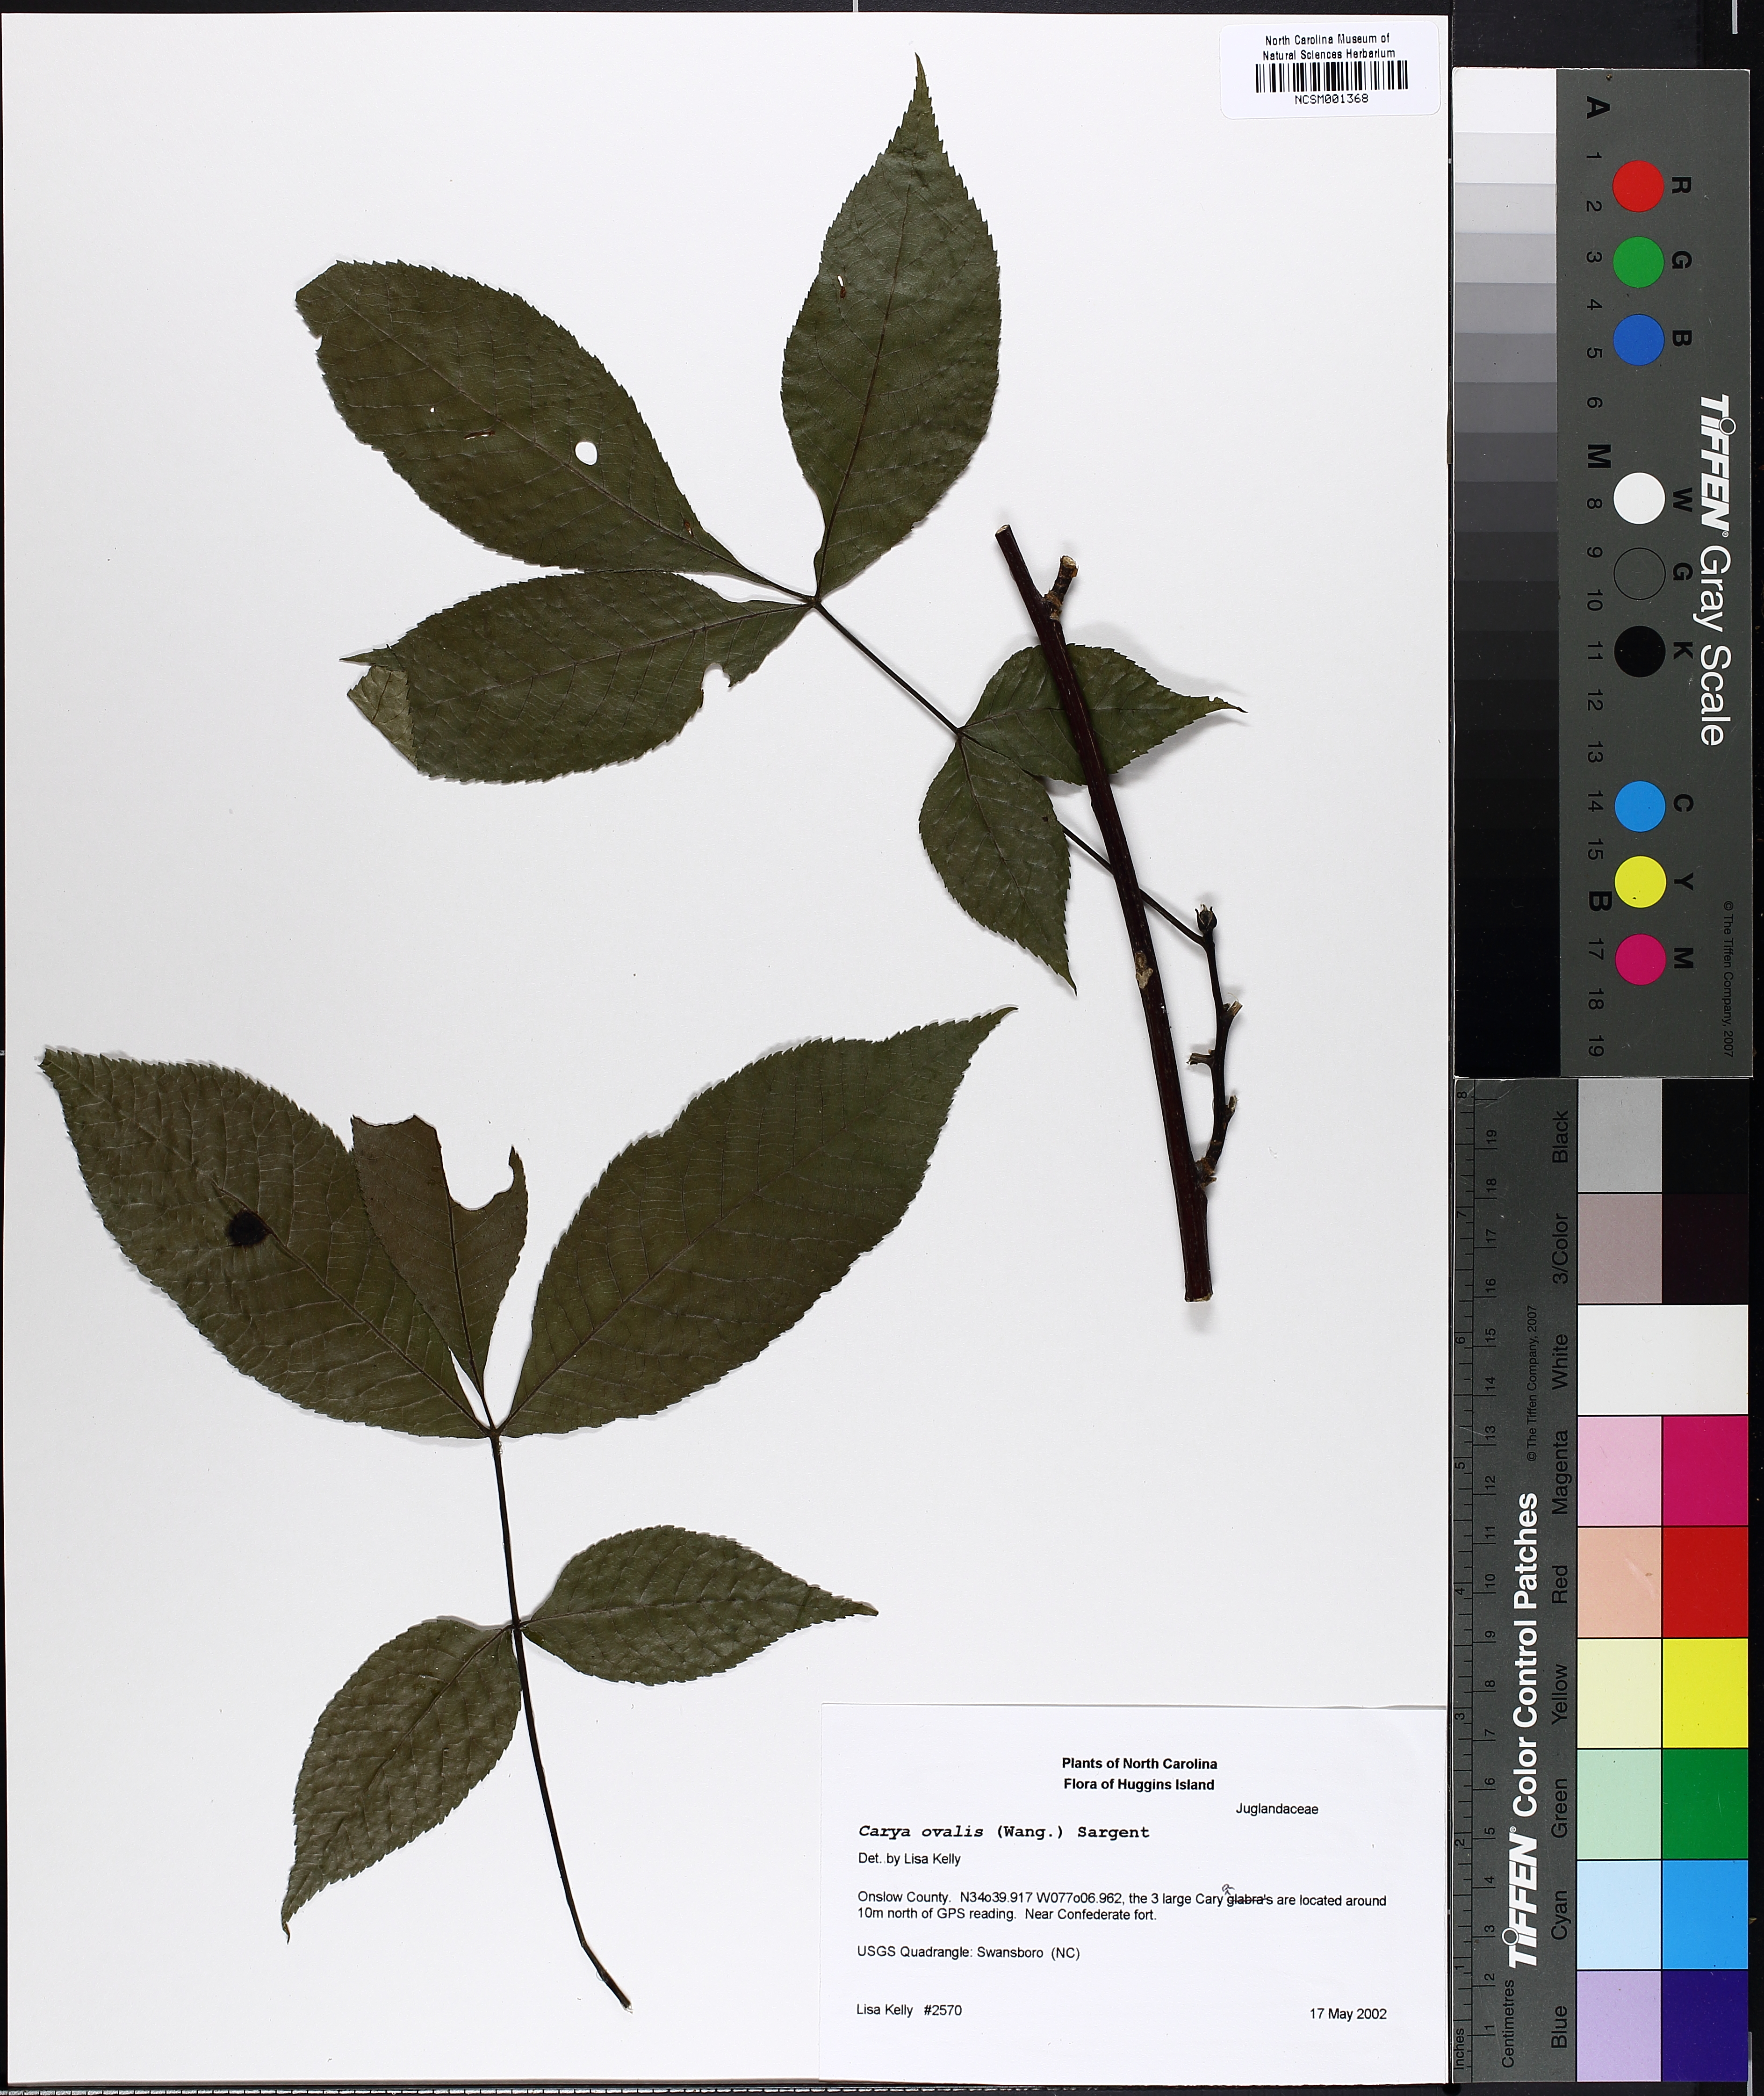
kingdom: Plantae
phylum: Tracheophyta
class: Magnoliopsida
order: Fagales
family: Juglandaceae
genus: Carya
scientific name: Carya ovalis
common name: False shagbark
